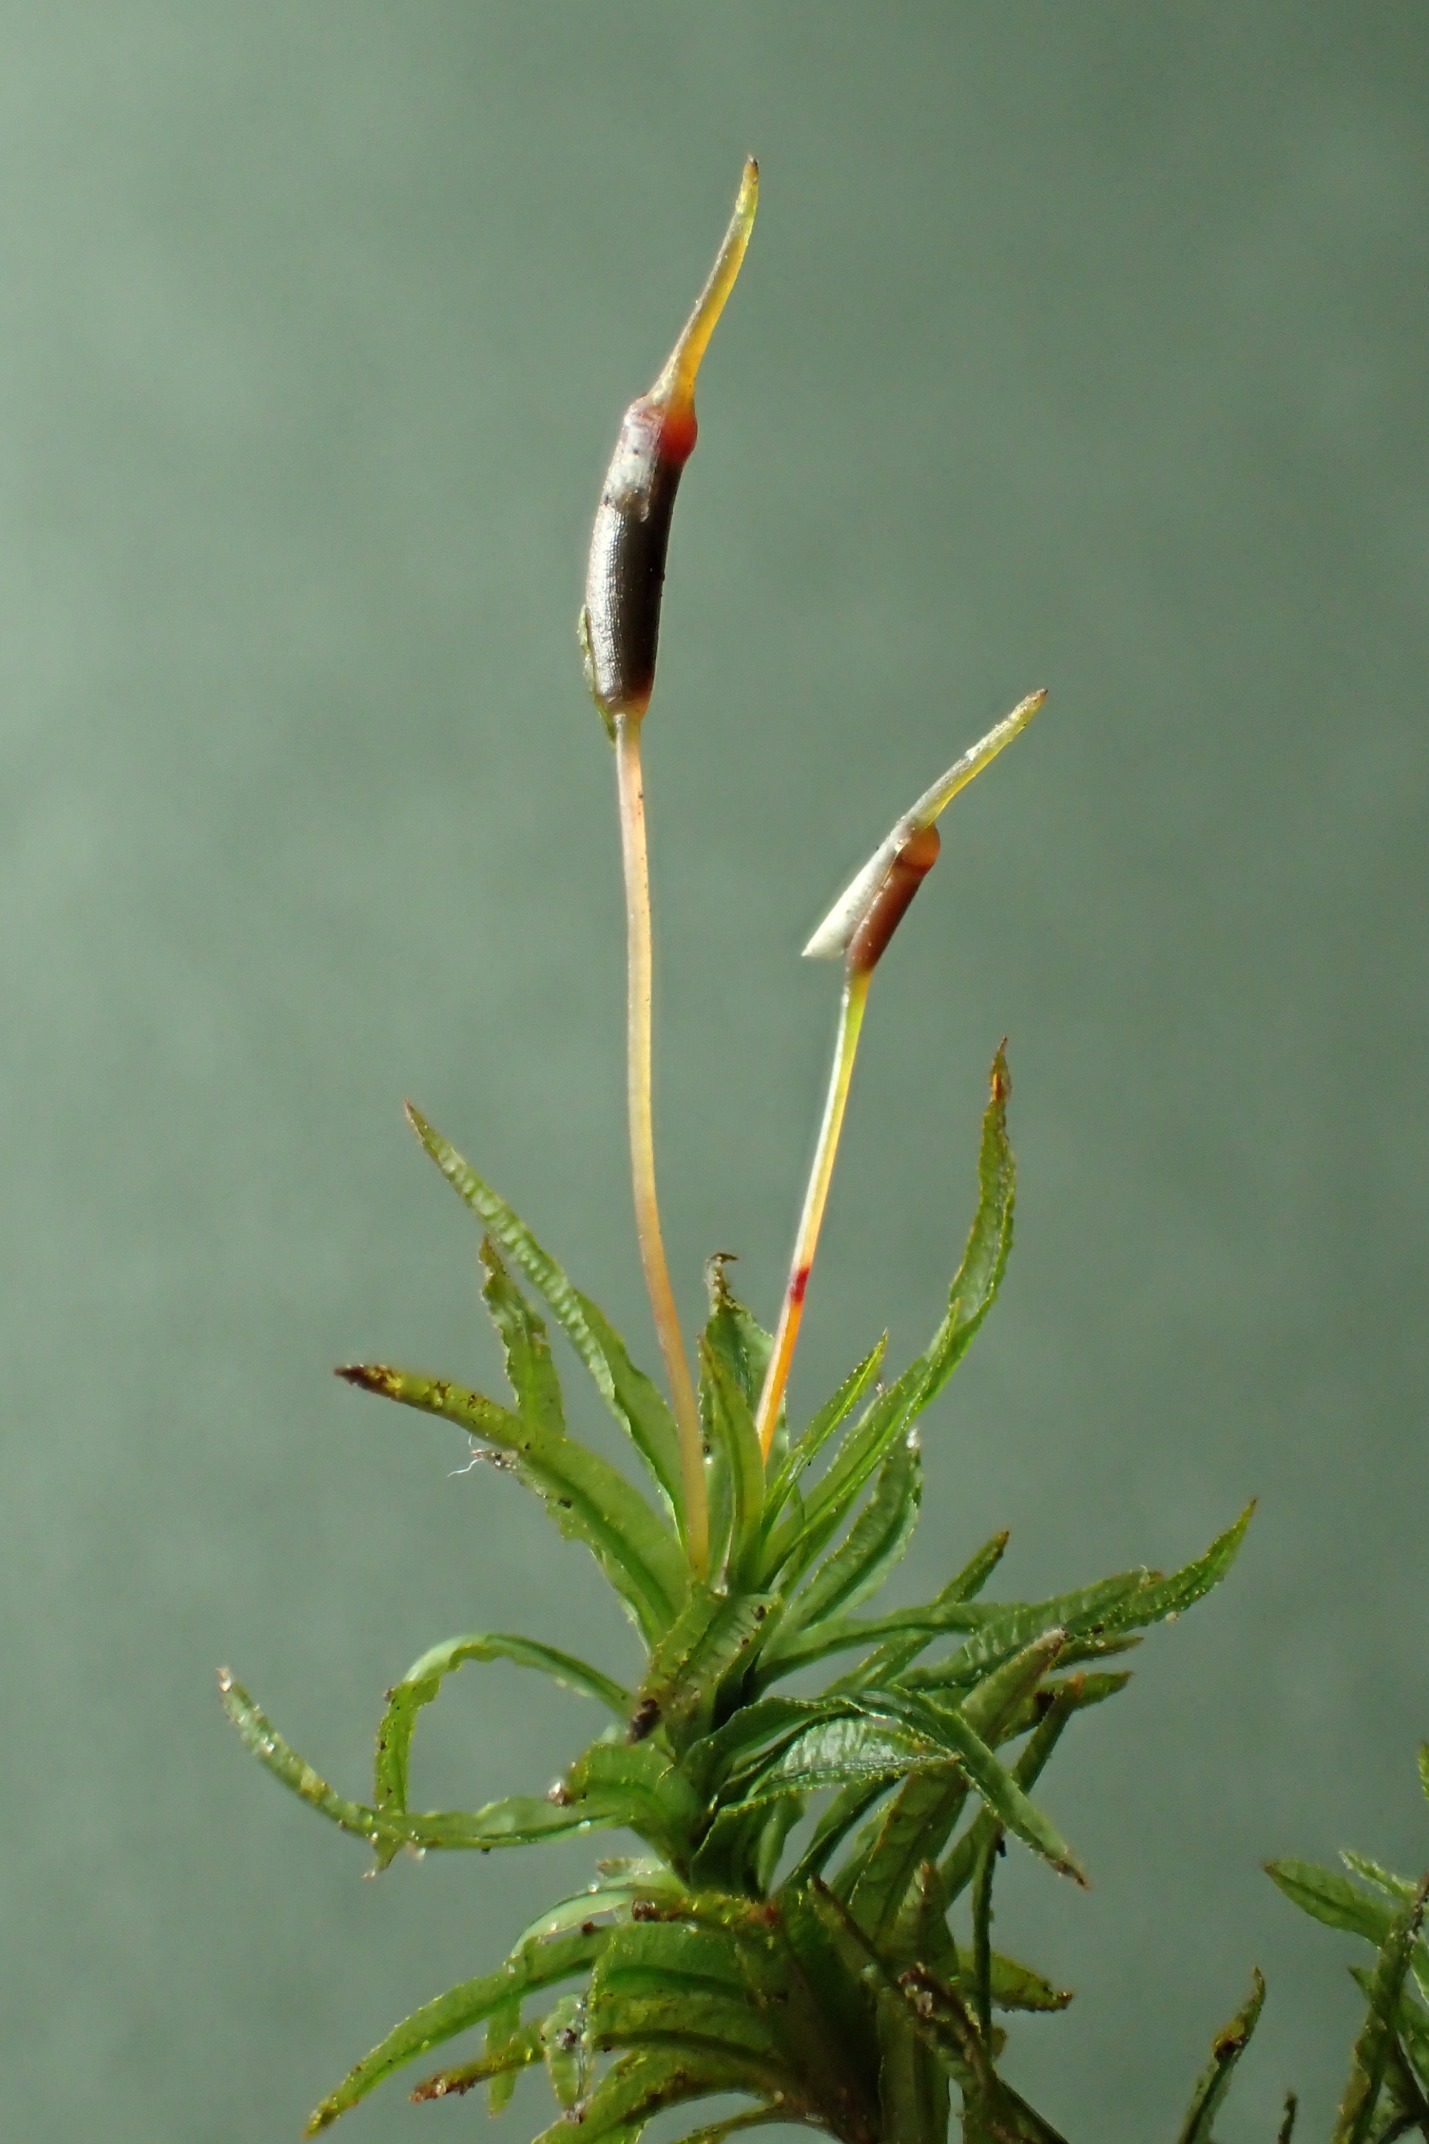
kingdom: Plantae
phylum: Bryophyta
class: Polytrichopsida
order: Polytrichales
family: Polytrichaceae
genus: Atrichum
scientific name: Atrichum undulatum
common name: Bølget katrinemos
